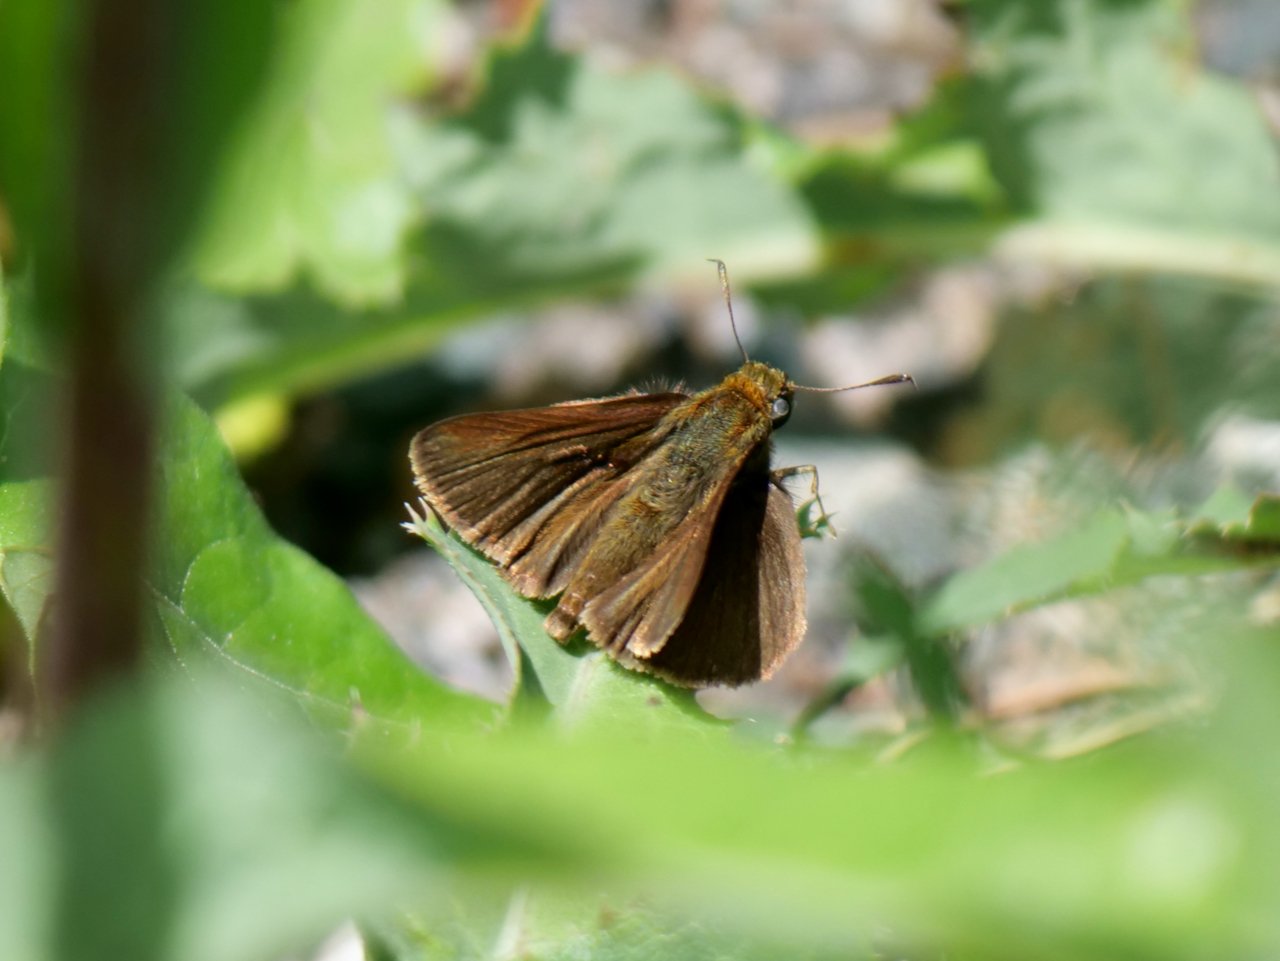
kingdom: Animalia
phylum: Arthropoda
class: Insecta
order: Lepidoptera
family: Hesperiidae
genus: Euphyes
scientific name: Euphyes vestris
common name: Dun Skipper
